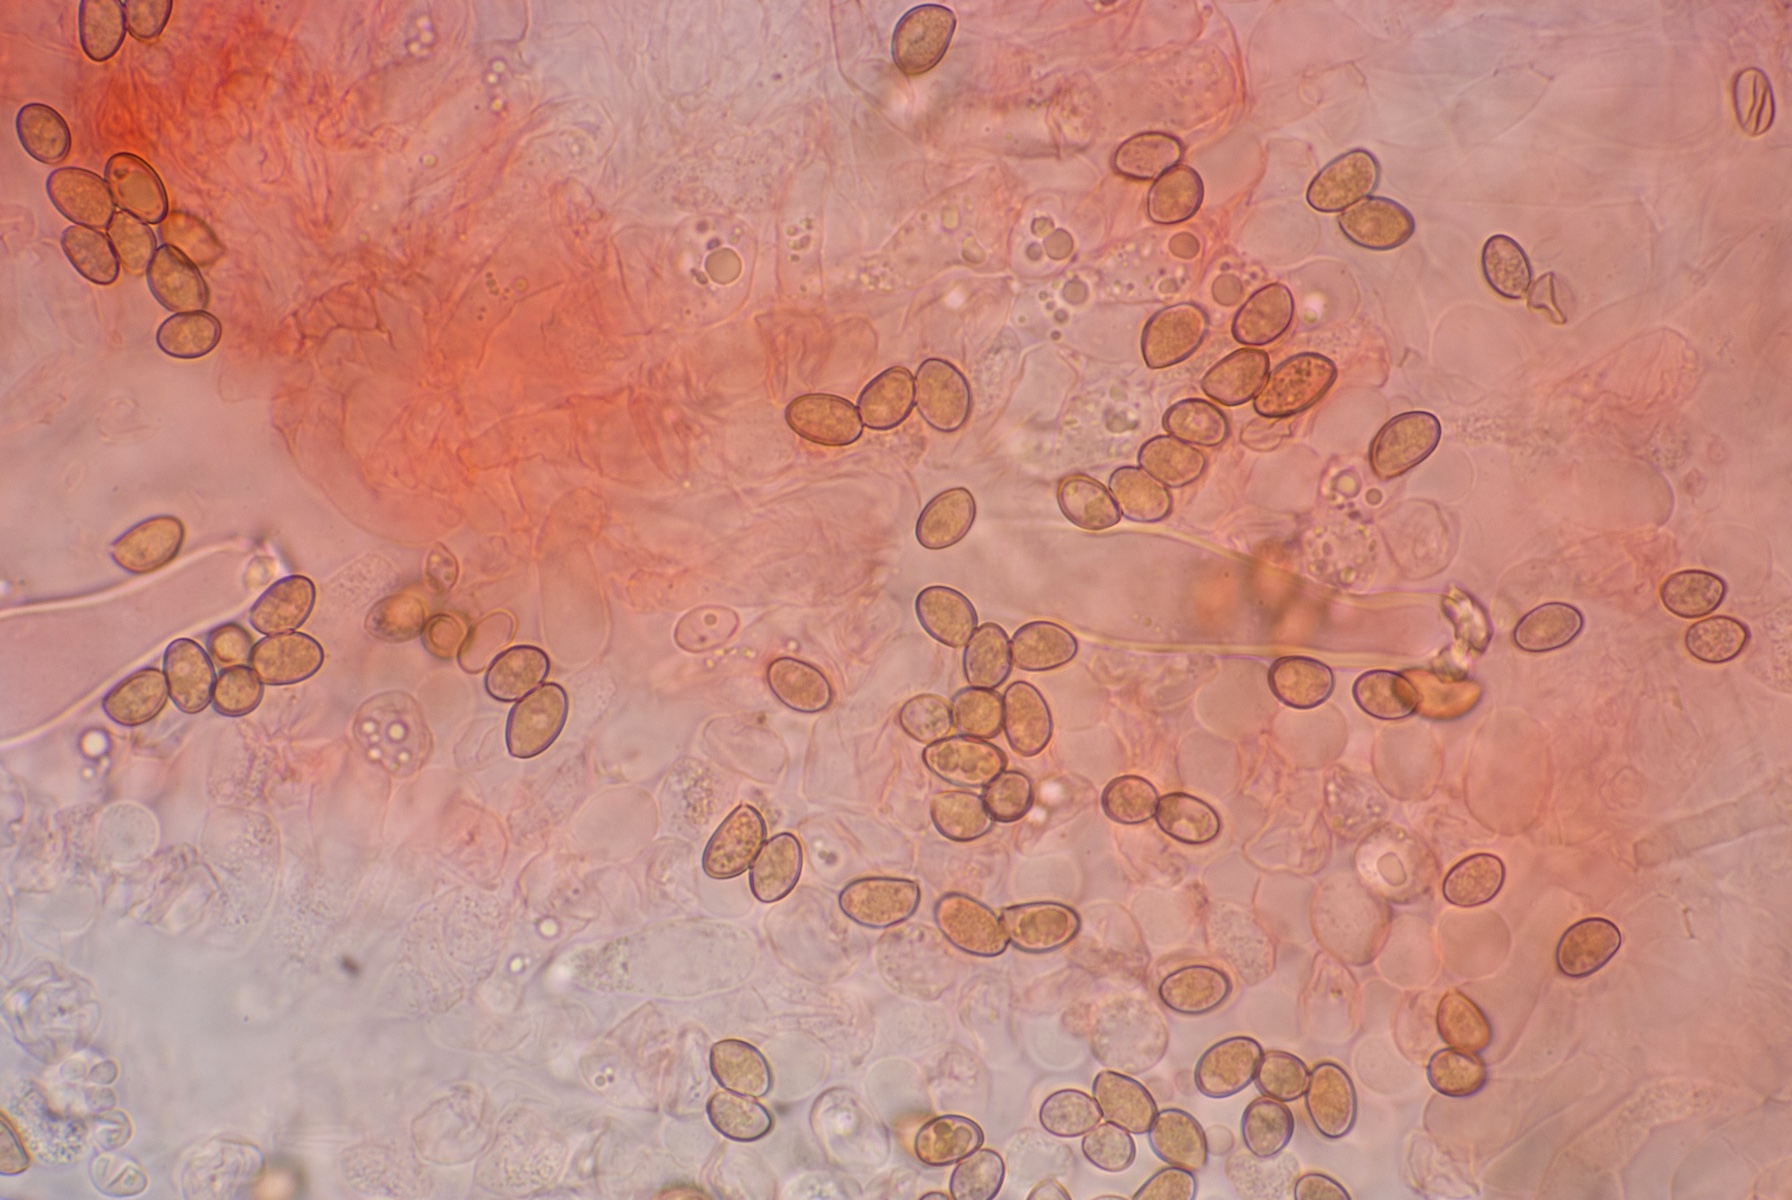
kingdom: Fungi
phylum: Basidiomycota
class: Agaricomycetes
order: Agaricales
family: Inocybaceae
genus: Inocybe
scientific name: Inocybe tyrii
